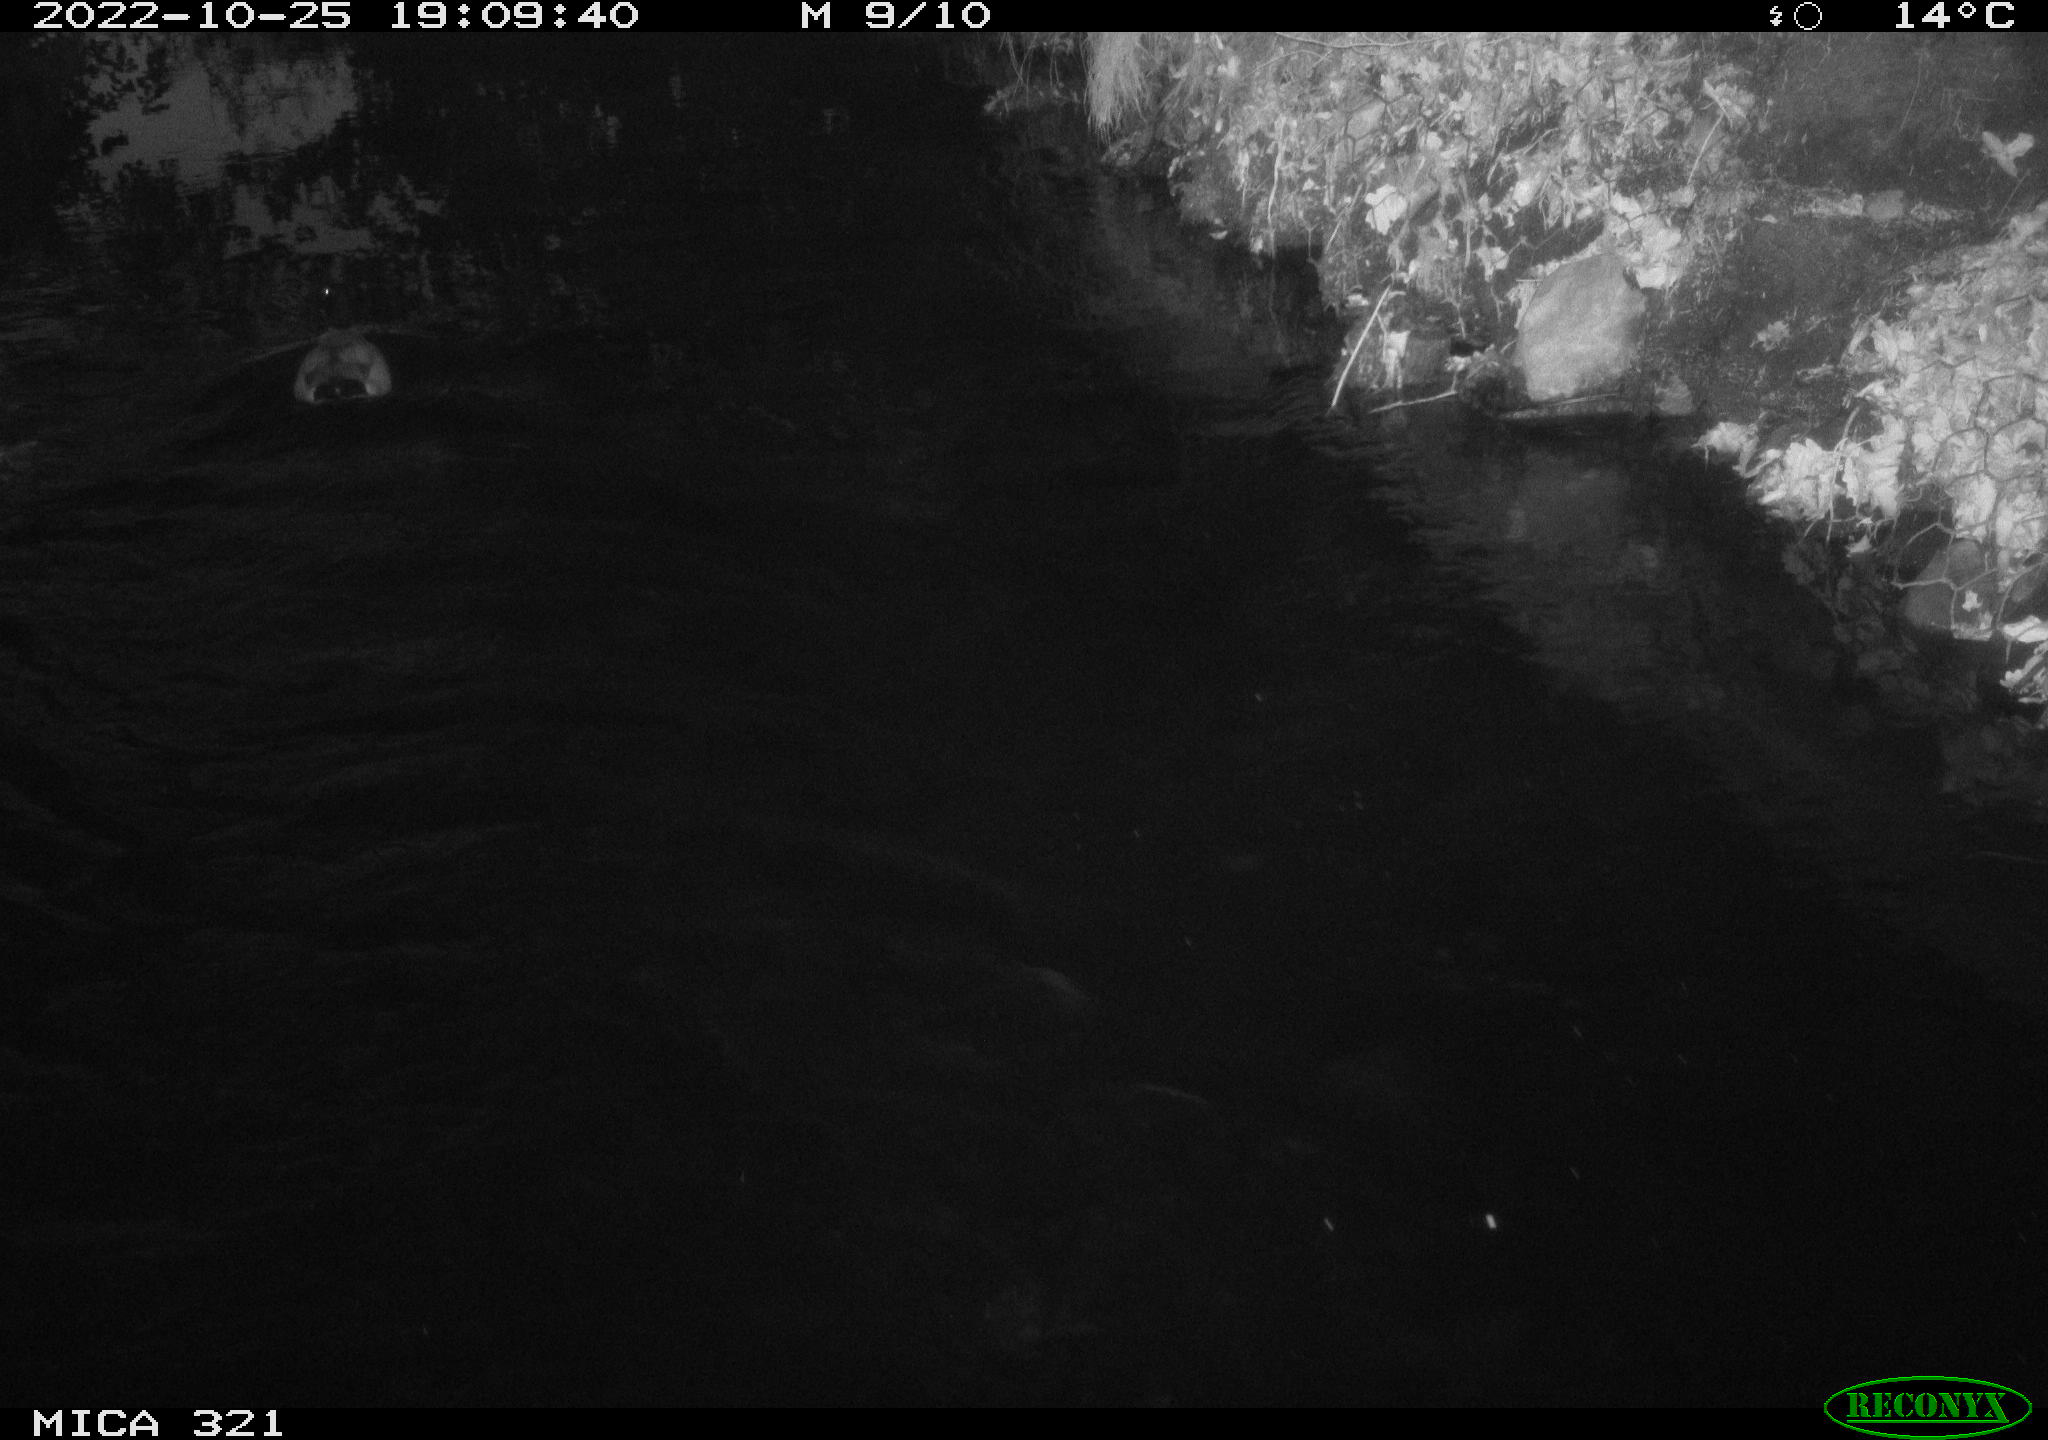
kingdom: Animalia
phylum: Chordata
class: Aves
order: Anseriformes
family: Anatidae
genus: Anas
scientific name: Anas
